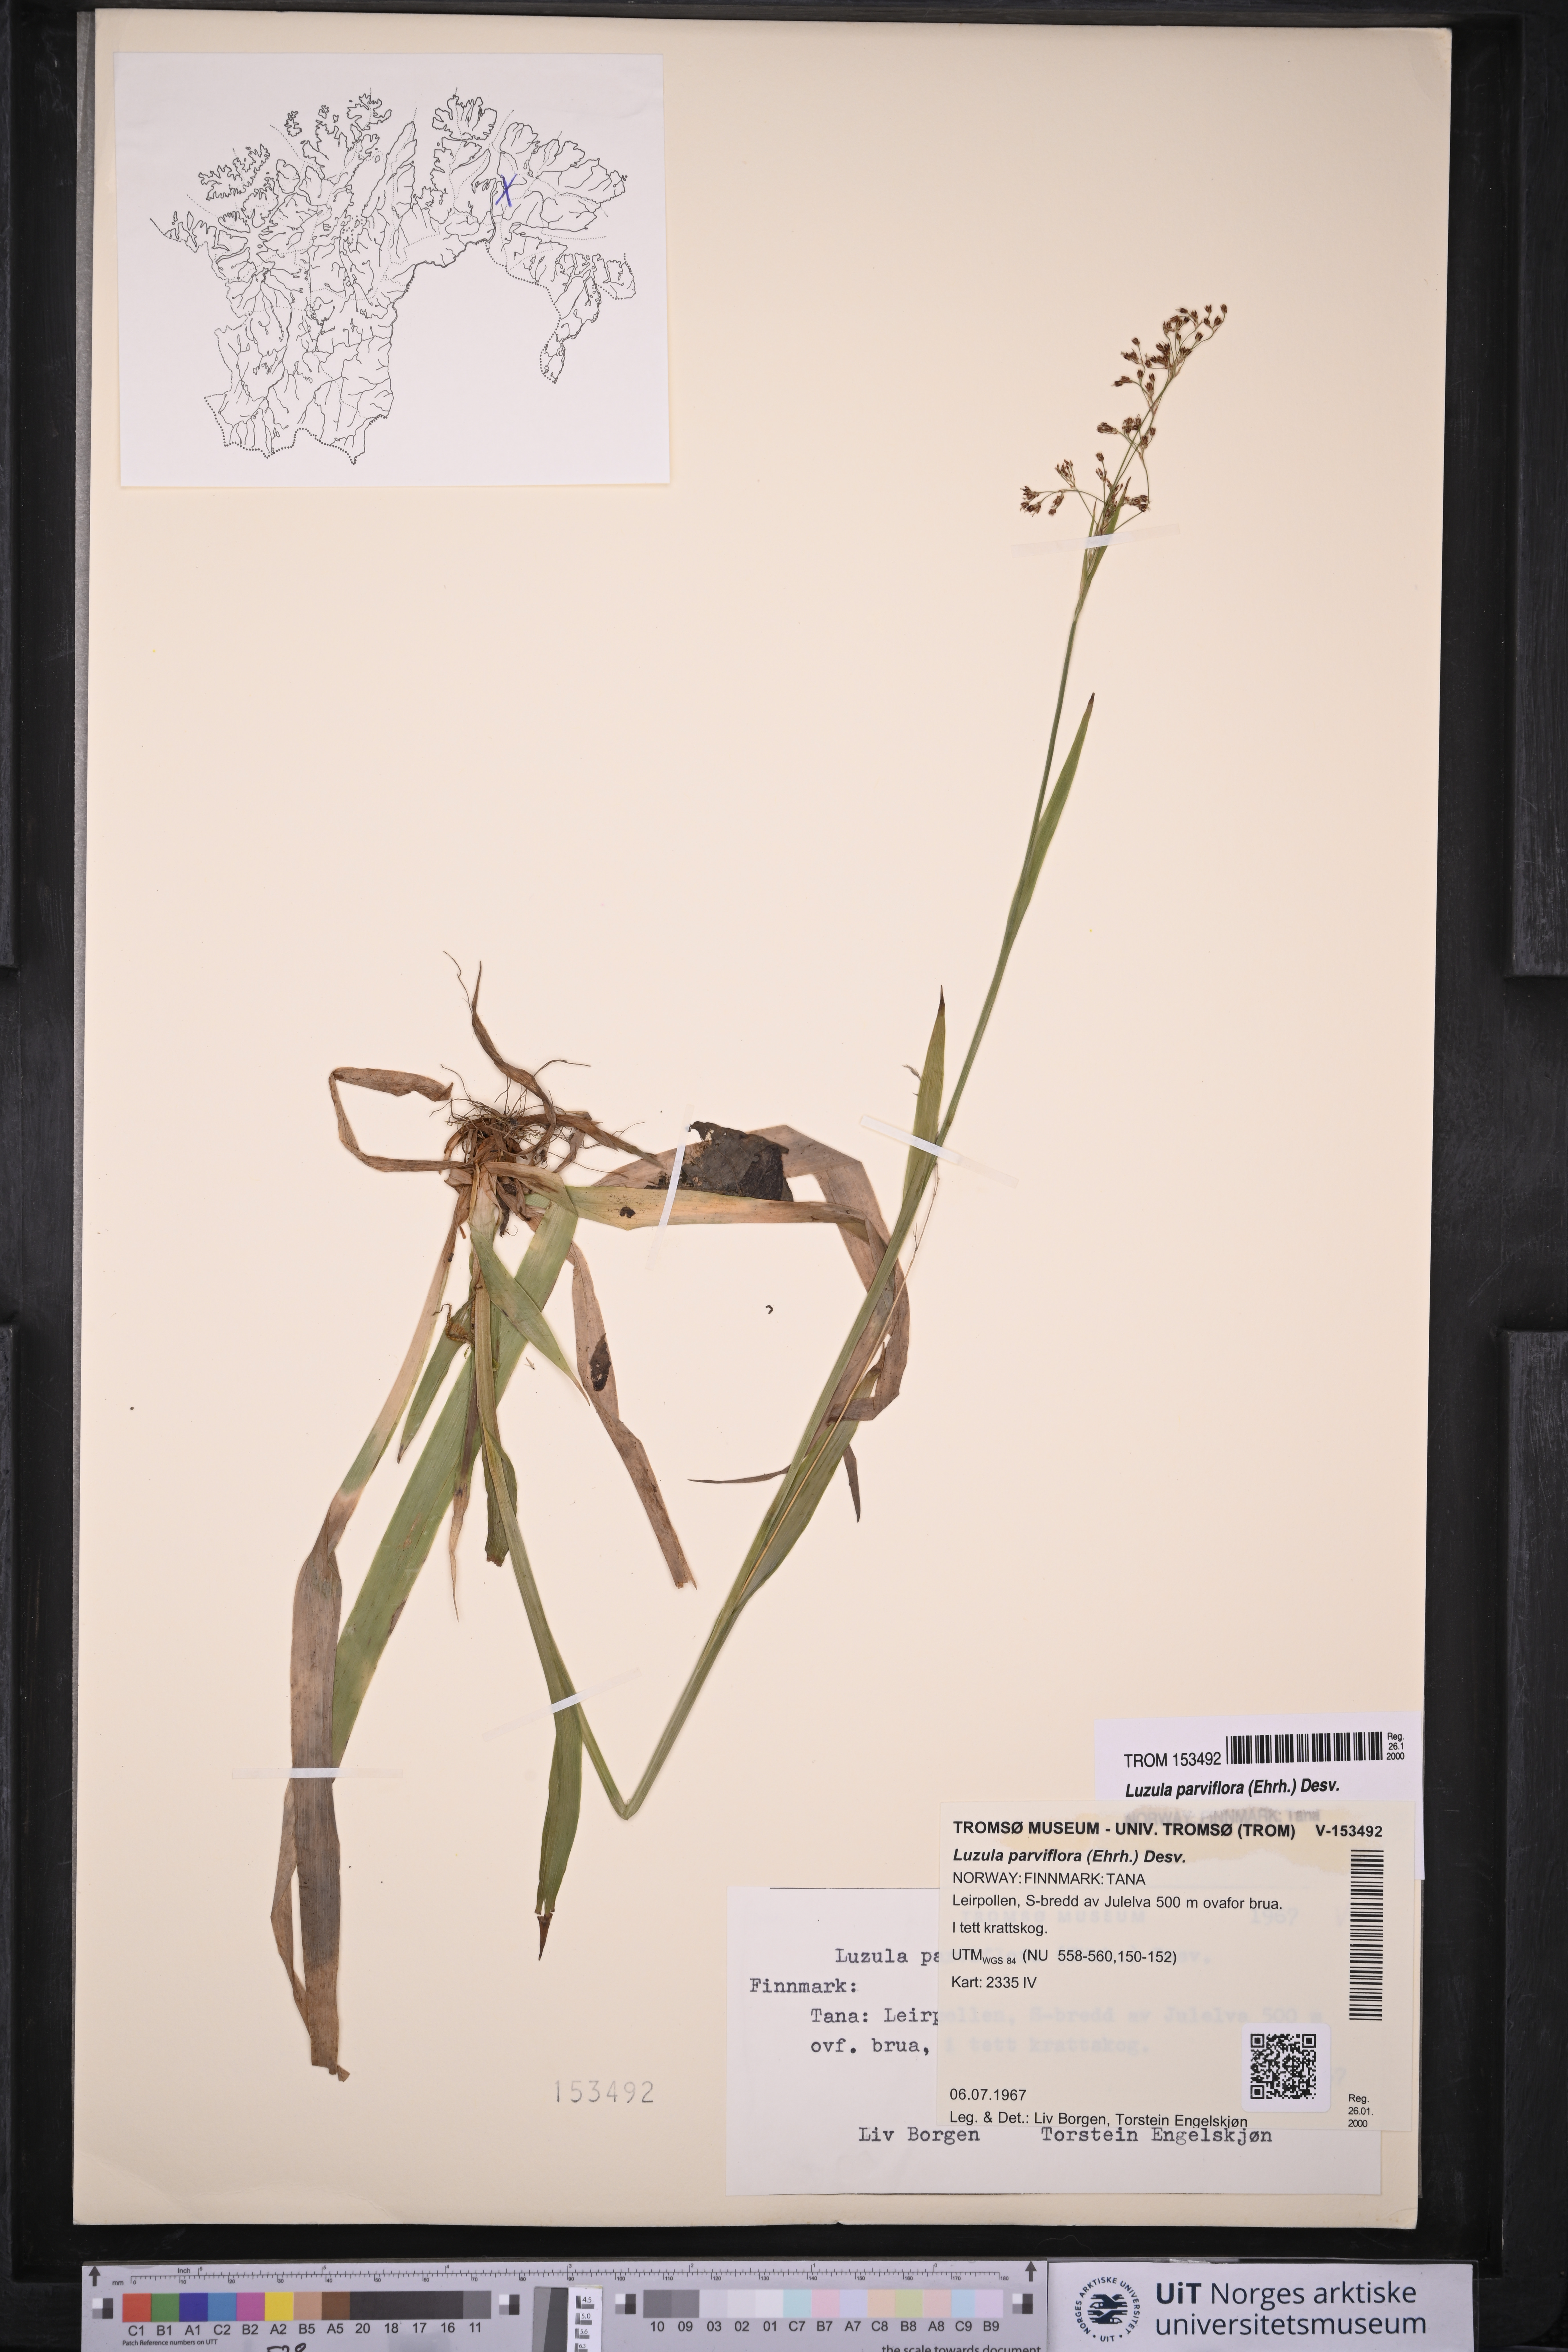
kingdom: Plantae
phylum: Tracheophyta
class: Liliopsida
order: Poales
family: Juncaceae
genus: Luzula
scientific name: Luzula parviflora
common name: Millet woodrush
